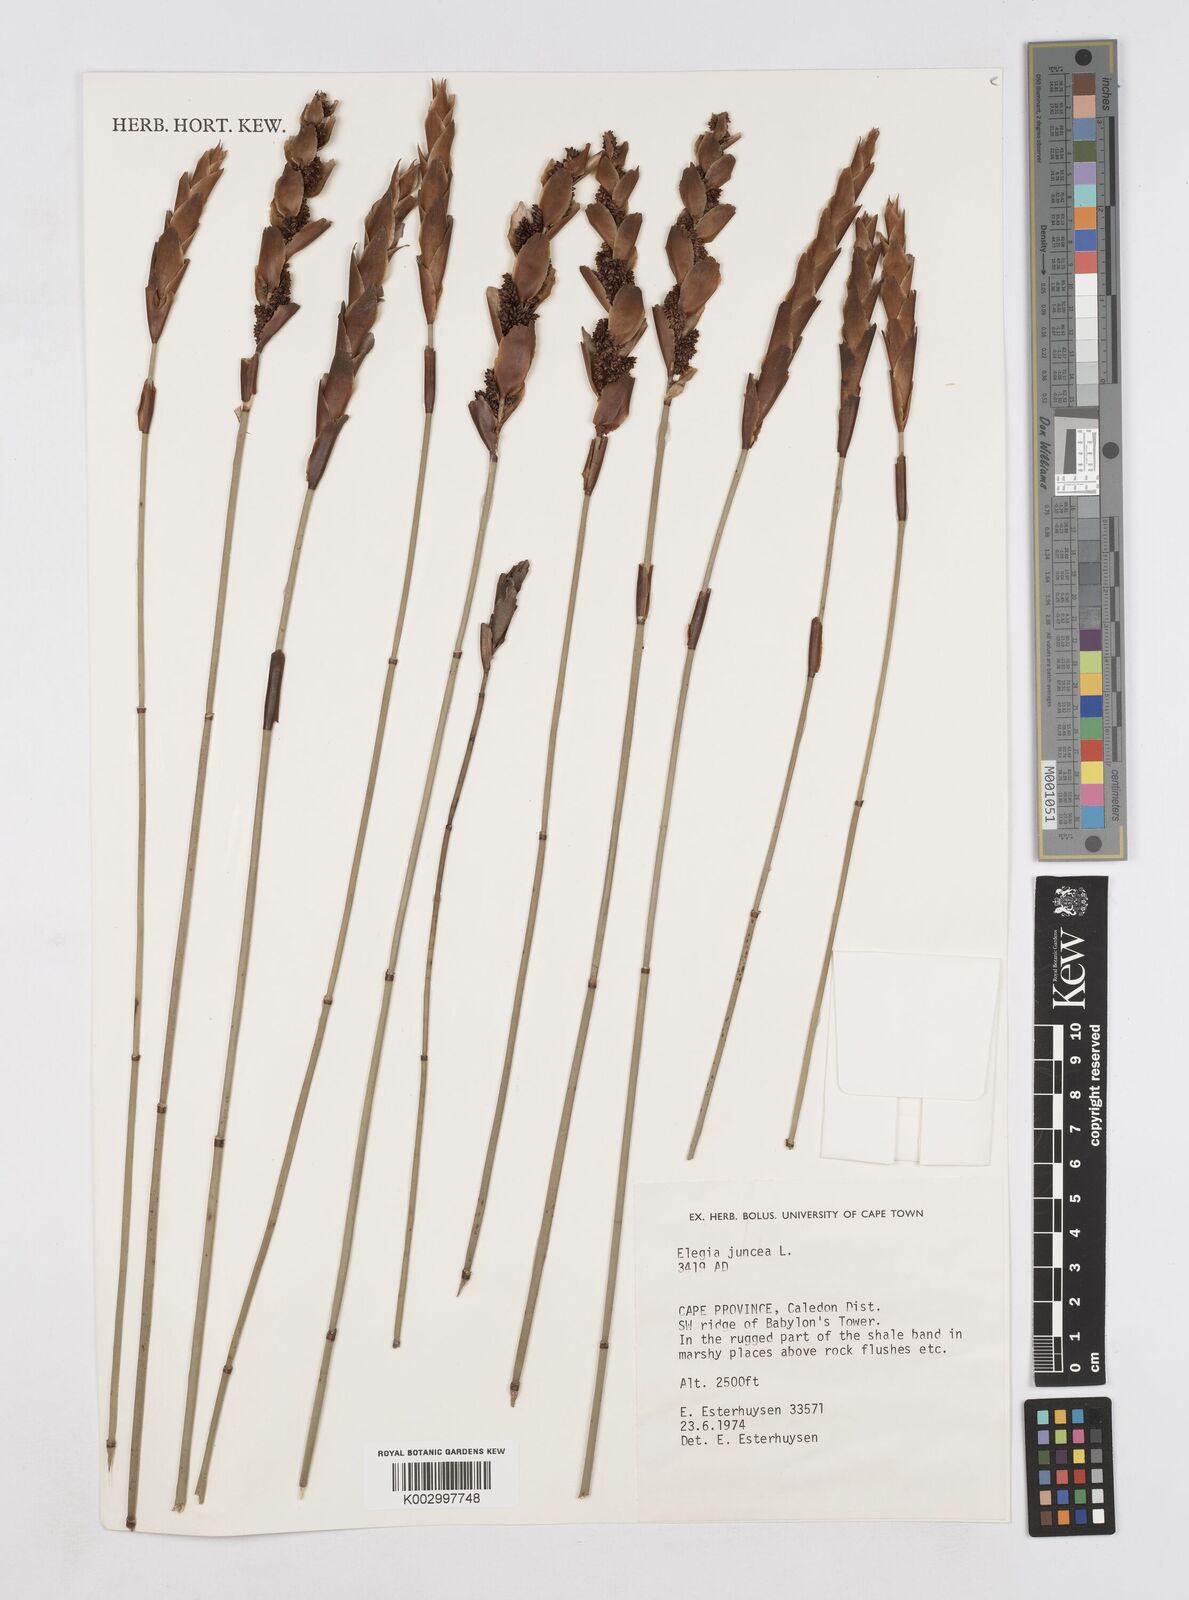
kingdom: Plantae
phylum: Tracheophyta
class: Liliopsida
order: Poales
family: Restionaceae
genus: Elegia
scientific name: Elegia juncea
